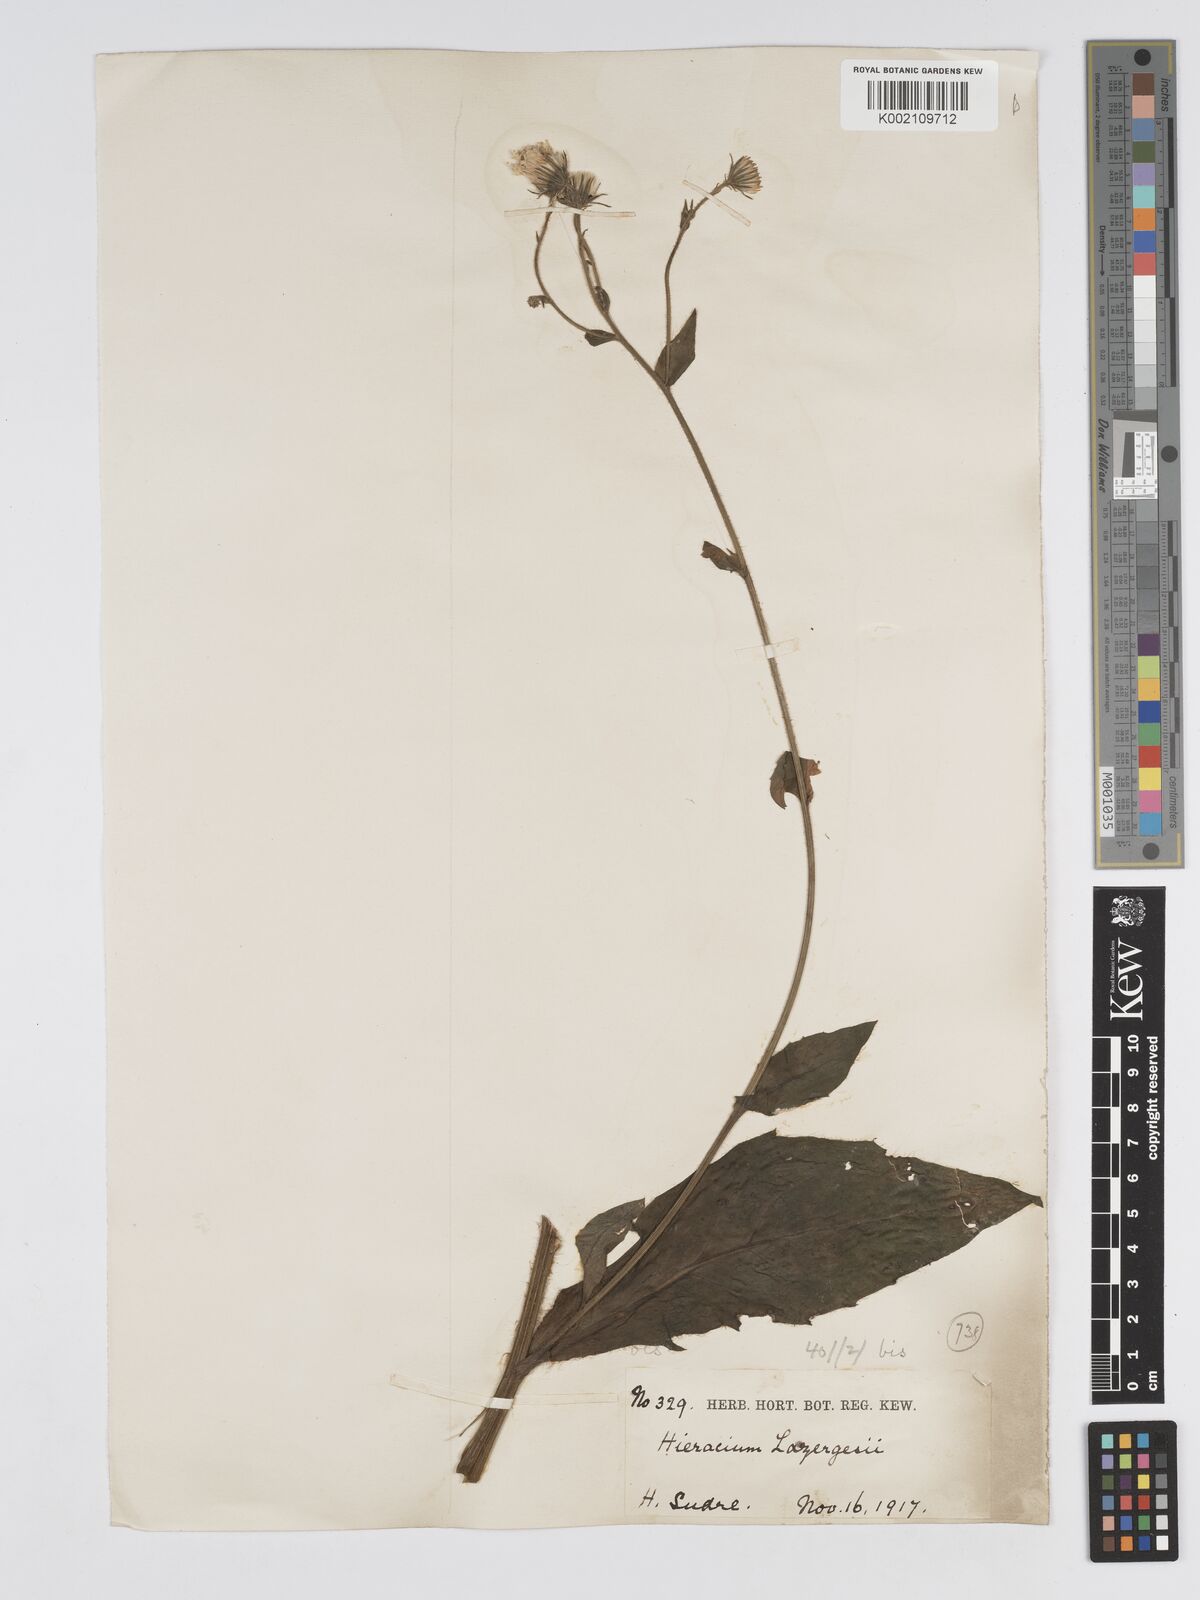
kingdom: Plantae
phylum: Tracheophyta
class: Magnoliopsida
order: Asterales
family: Asteraceae
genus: Hieracium
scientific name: Hieracium patens
